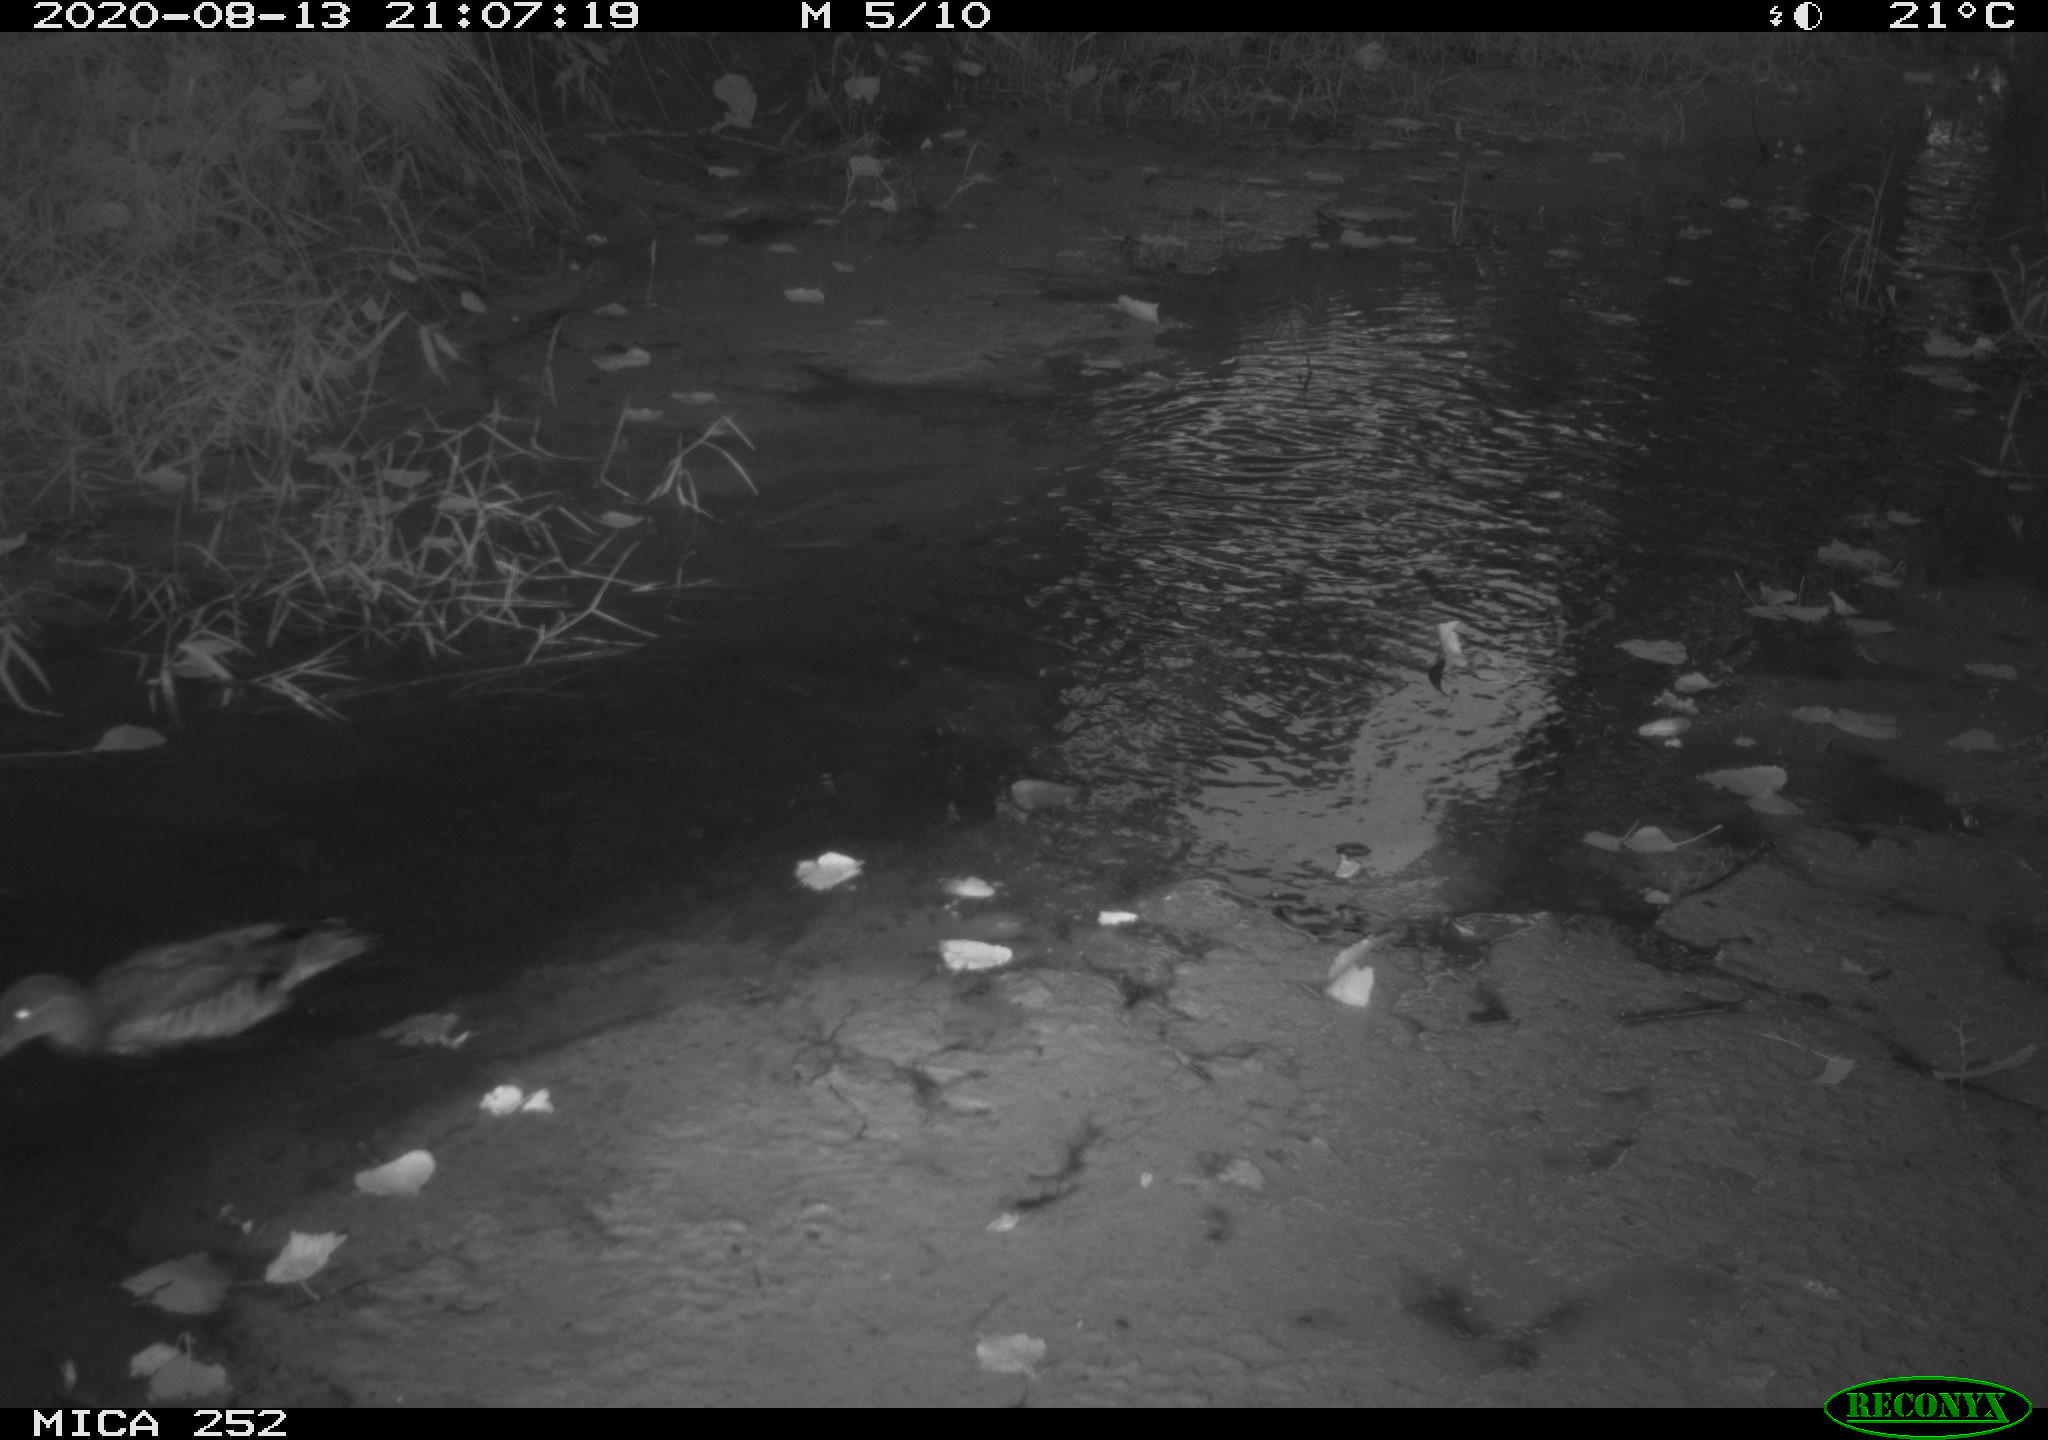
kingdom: Animalia
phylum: Chordata
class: Aves
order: Anseriformes
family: Anatidae
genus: Aix
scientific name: Aix galericulata
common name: Mandarin duck
